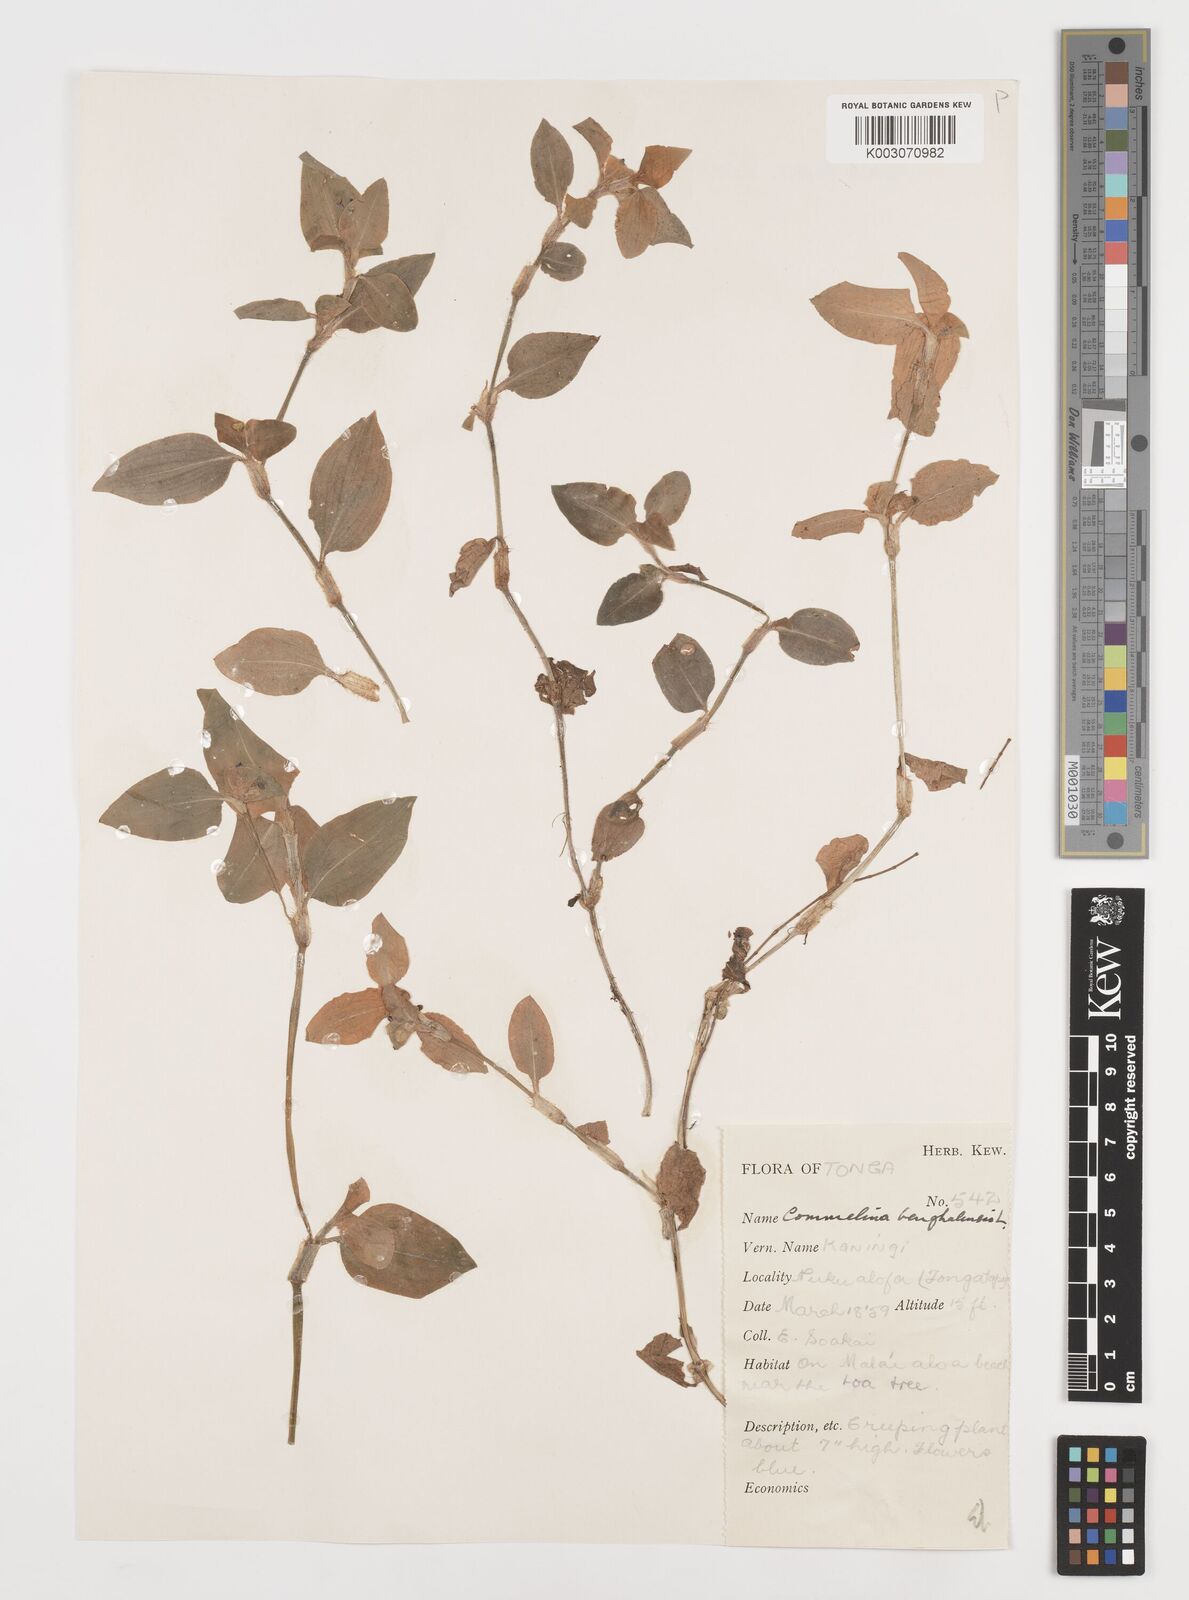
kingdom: Plantae
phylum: Tracheophyta
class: Liliopsida
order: Commelinales
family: Commelinaceae
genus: Commelina
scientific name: Commelina benghalensis
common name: Jio
